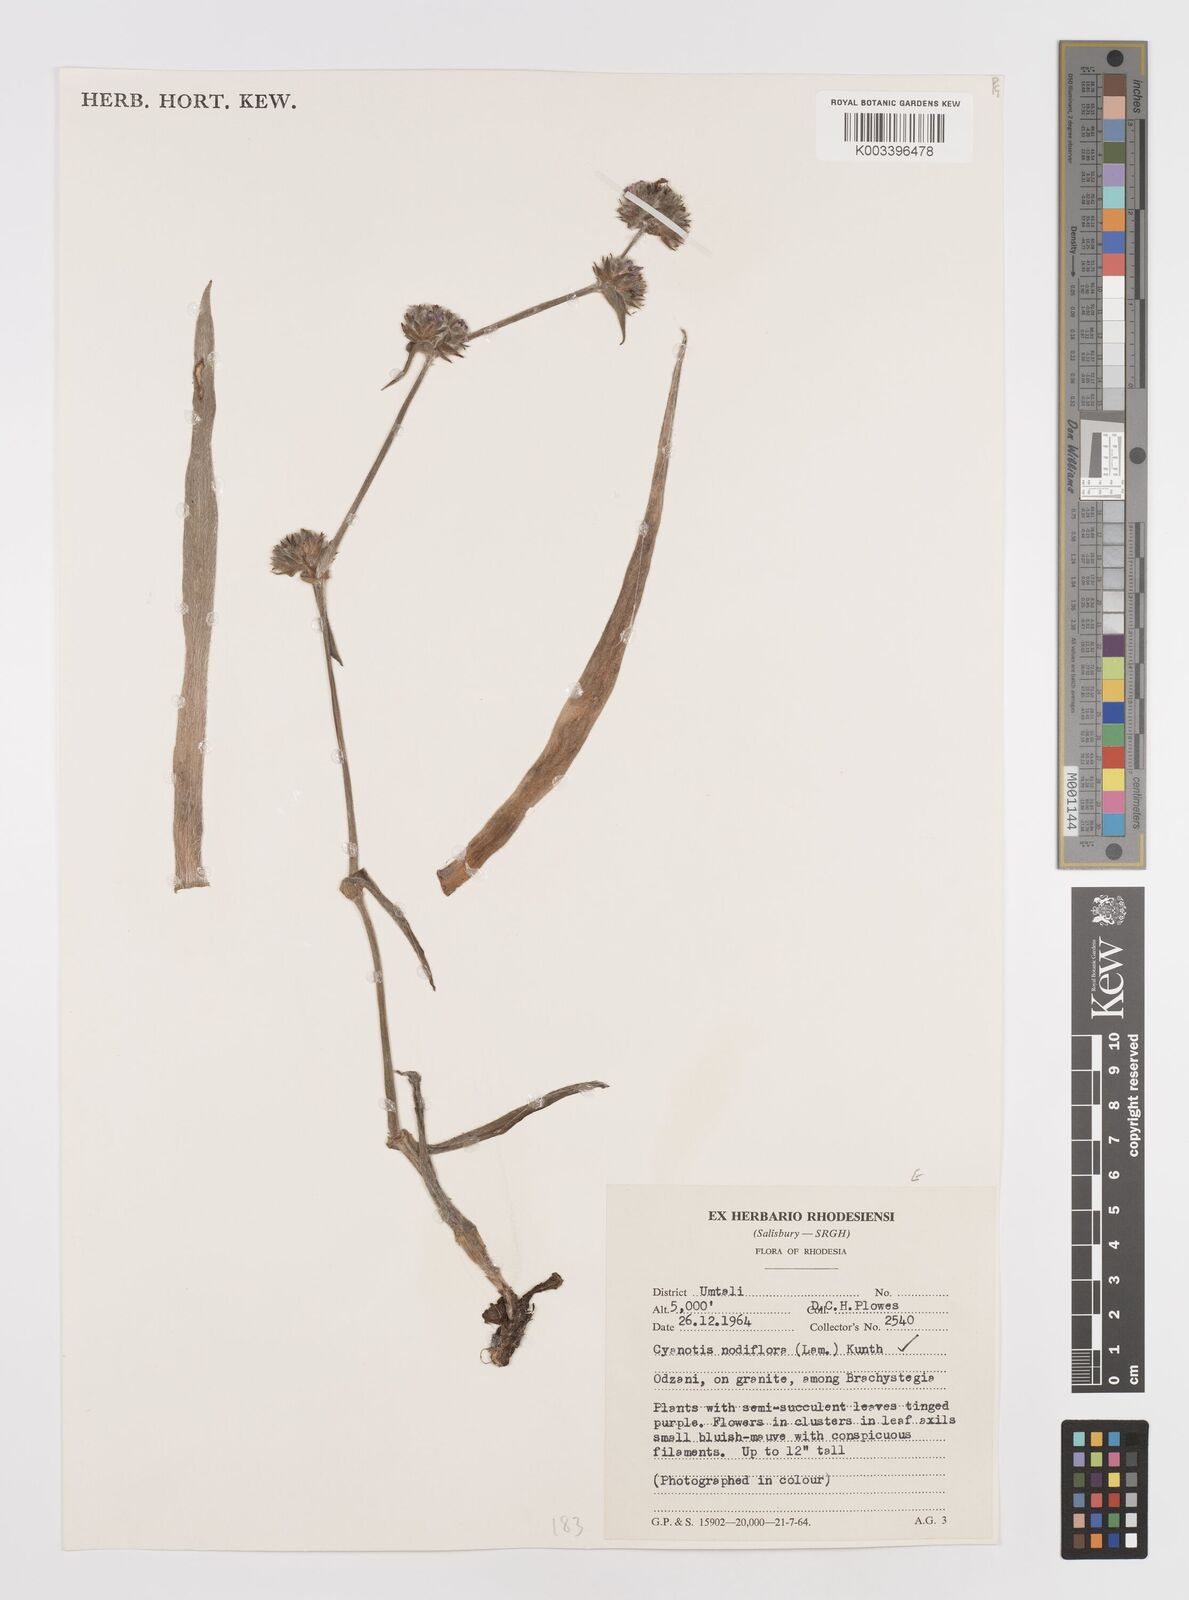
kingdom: Plantae
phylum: Tracheophyta
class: Liliopsida
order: Commelinales
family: Commelinaceae
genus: Cyanotis
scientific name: Cyanotis speciosa
